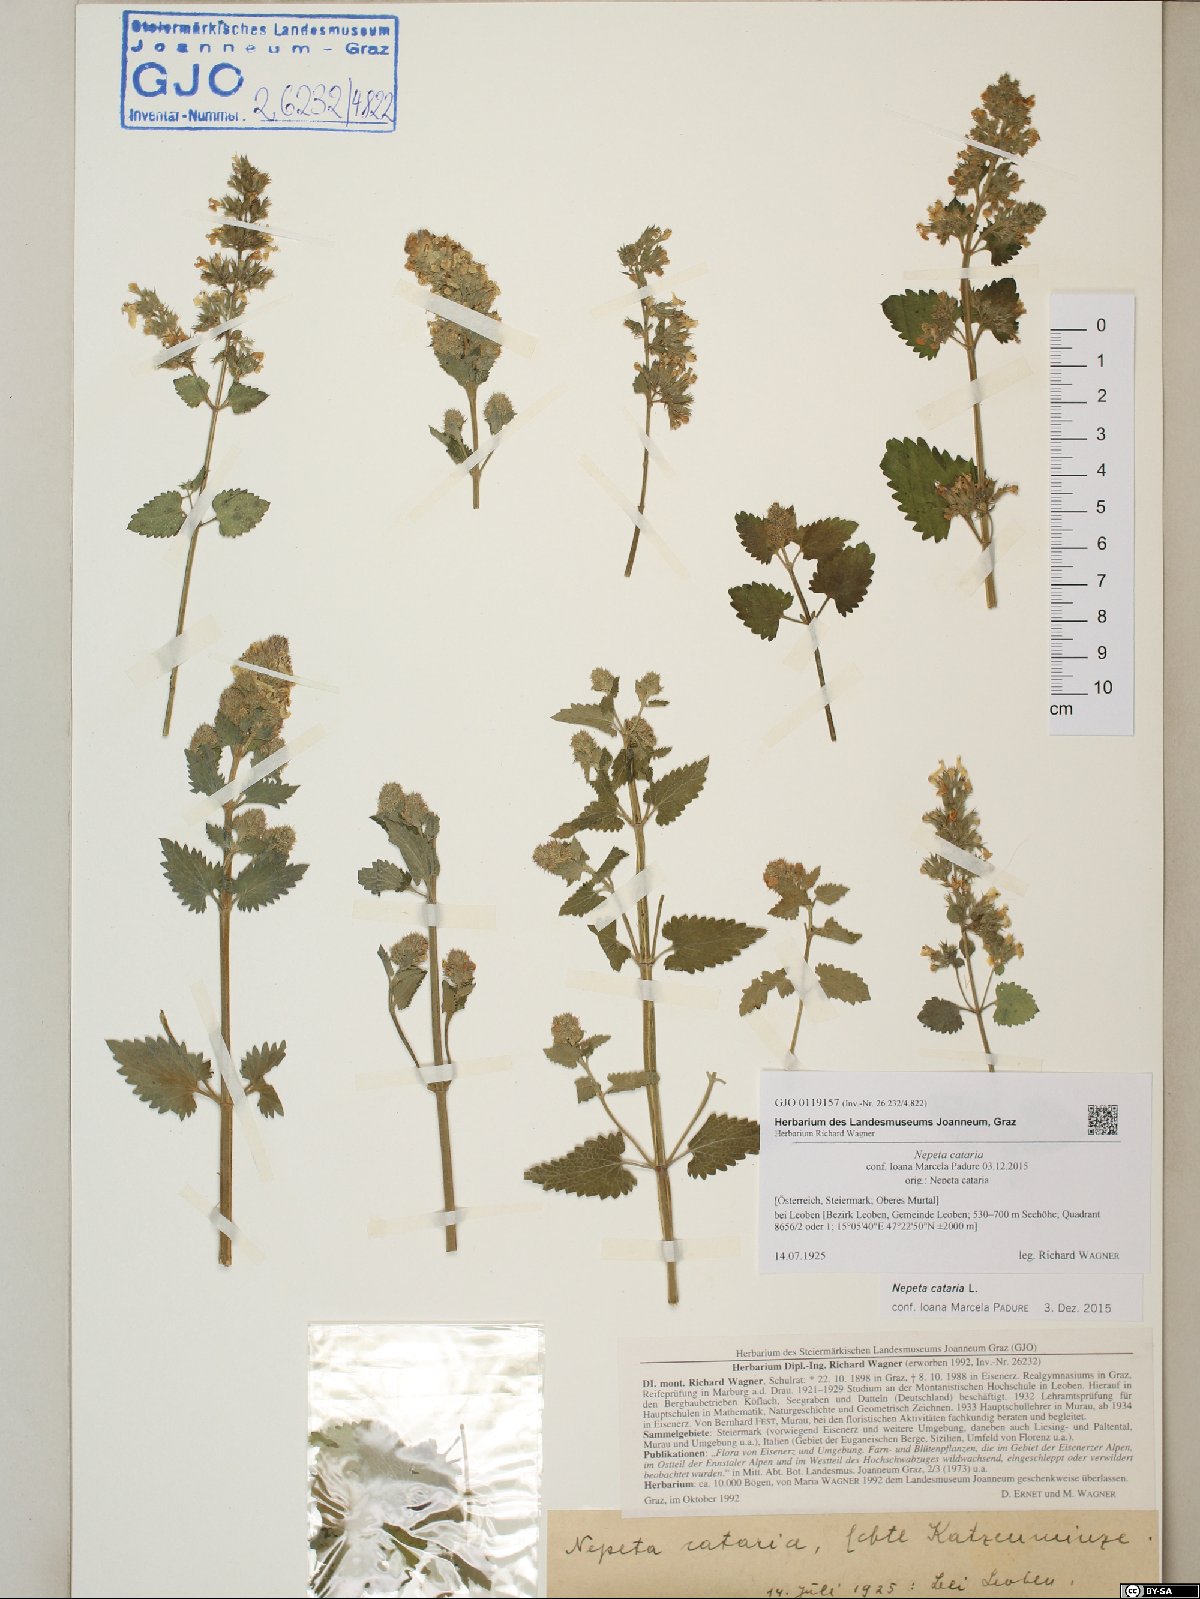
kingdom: Plantae
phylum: Tracheophyta
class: Magnoliopsida
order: Lamiales
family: Lamiaceae
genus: Nepeta
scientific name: Nepeta cataria
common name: Catnip
